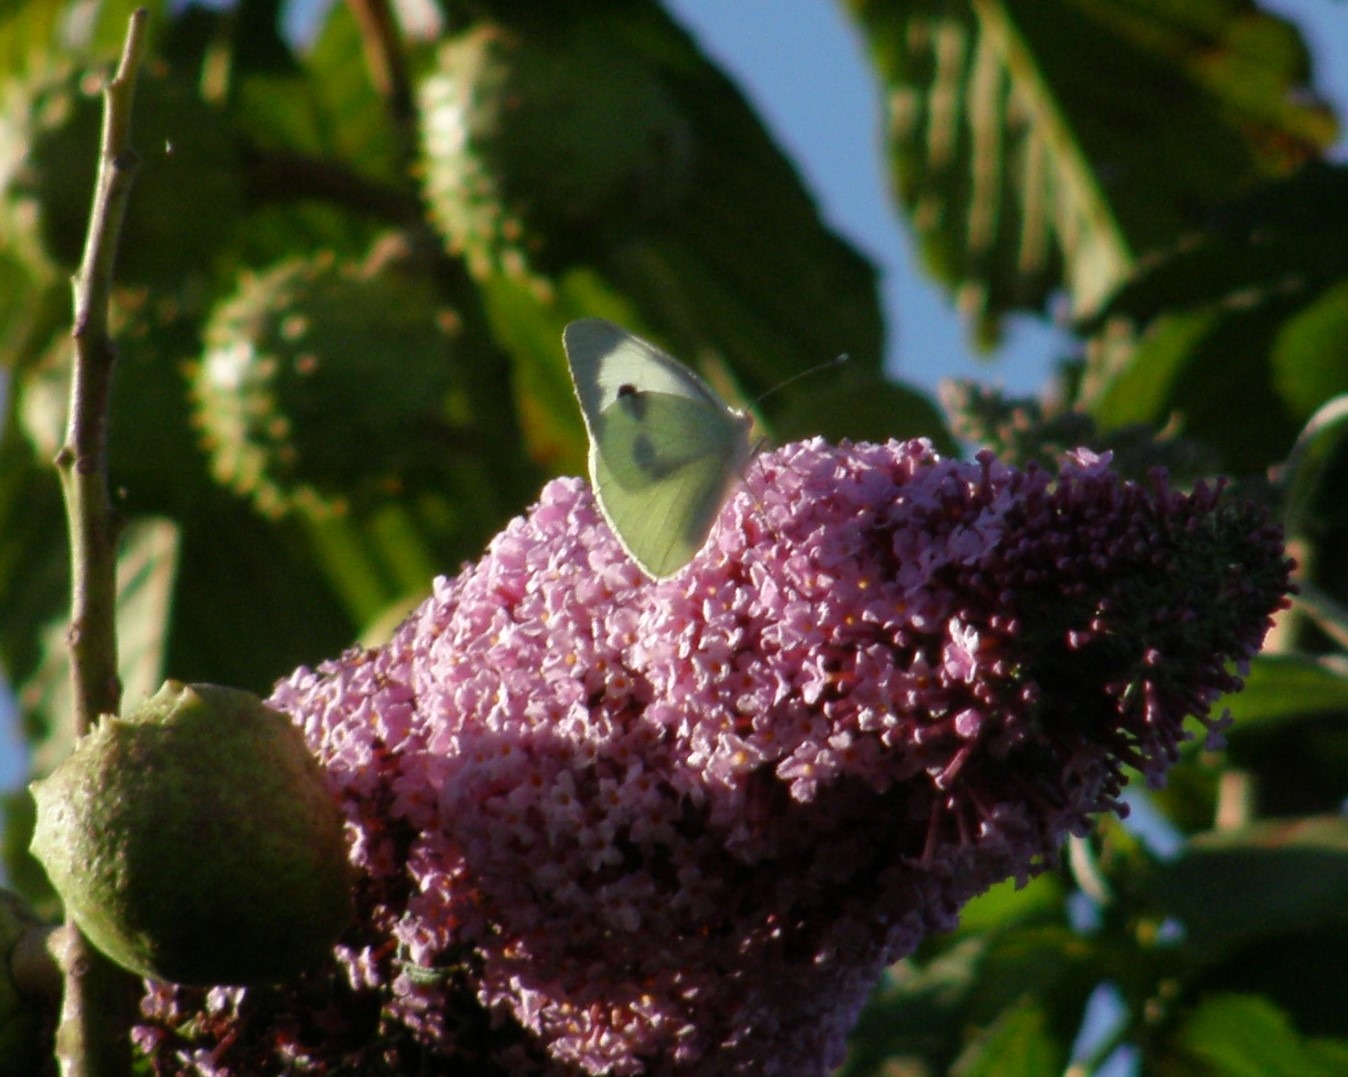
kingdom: Animalia
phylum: Arthropoda
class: Insecta
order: Lepidoptera
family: Pieridae
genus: Pieris
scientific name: Pieris brassicae
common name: Stor kålsommerfugl
